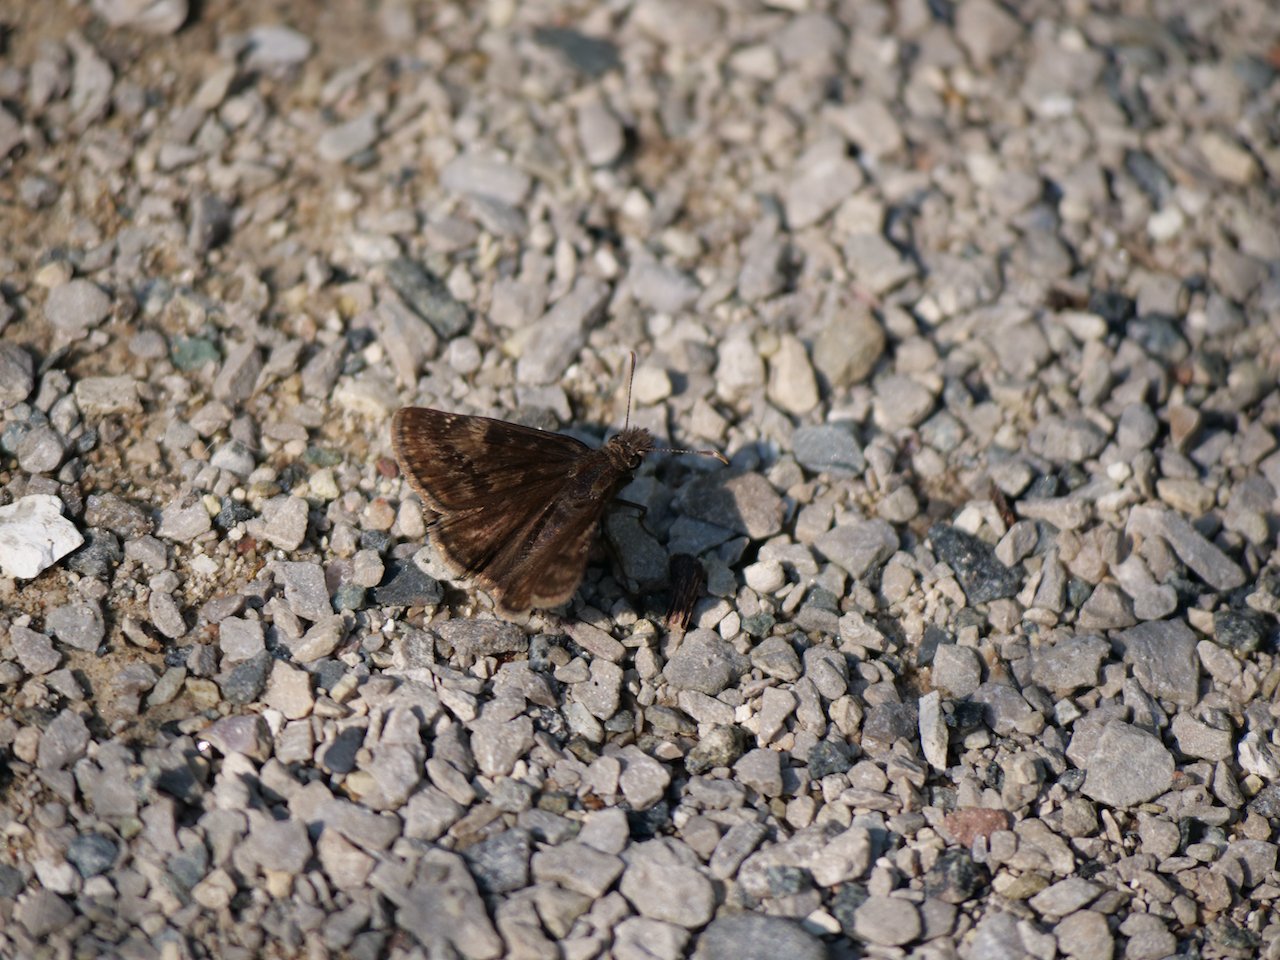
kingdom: Animalia
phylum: Arthropoda
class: Insecta
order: Lepidoptera
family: Hesperiidae
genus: Gesta
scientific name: Gesta
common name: Wild Indigo Duskywing
